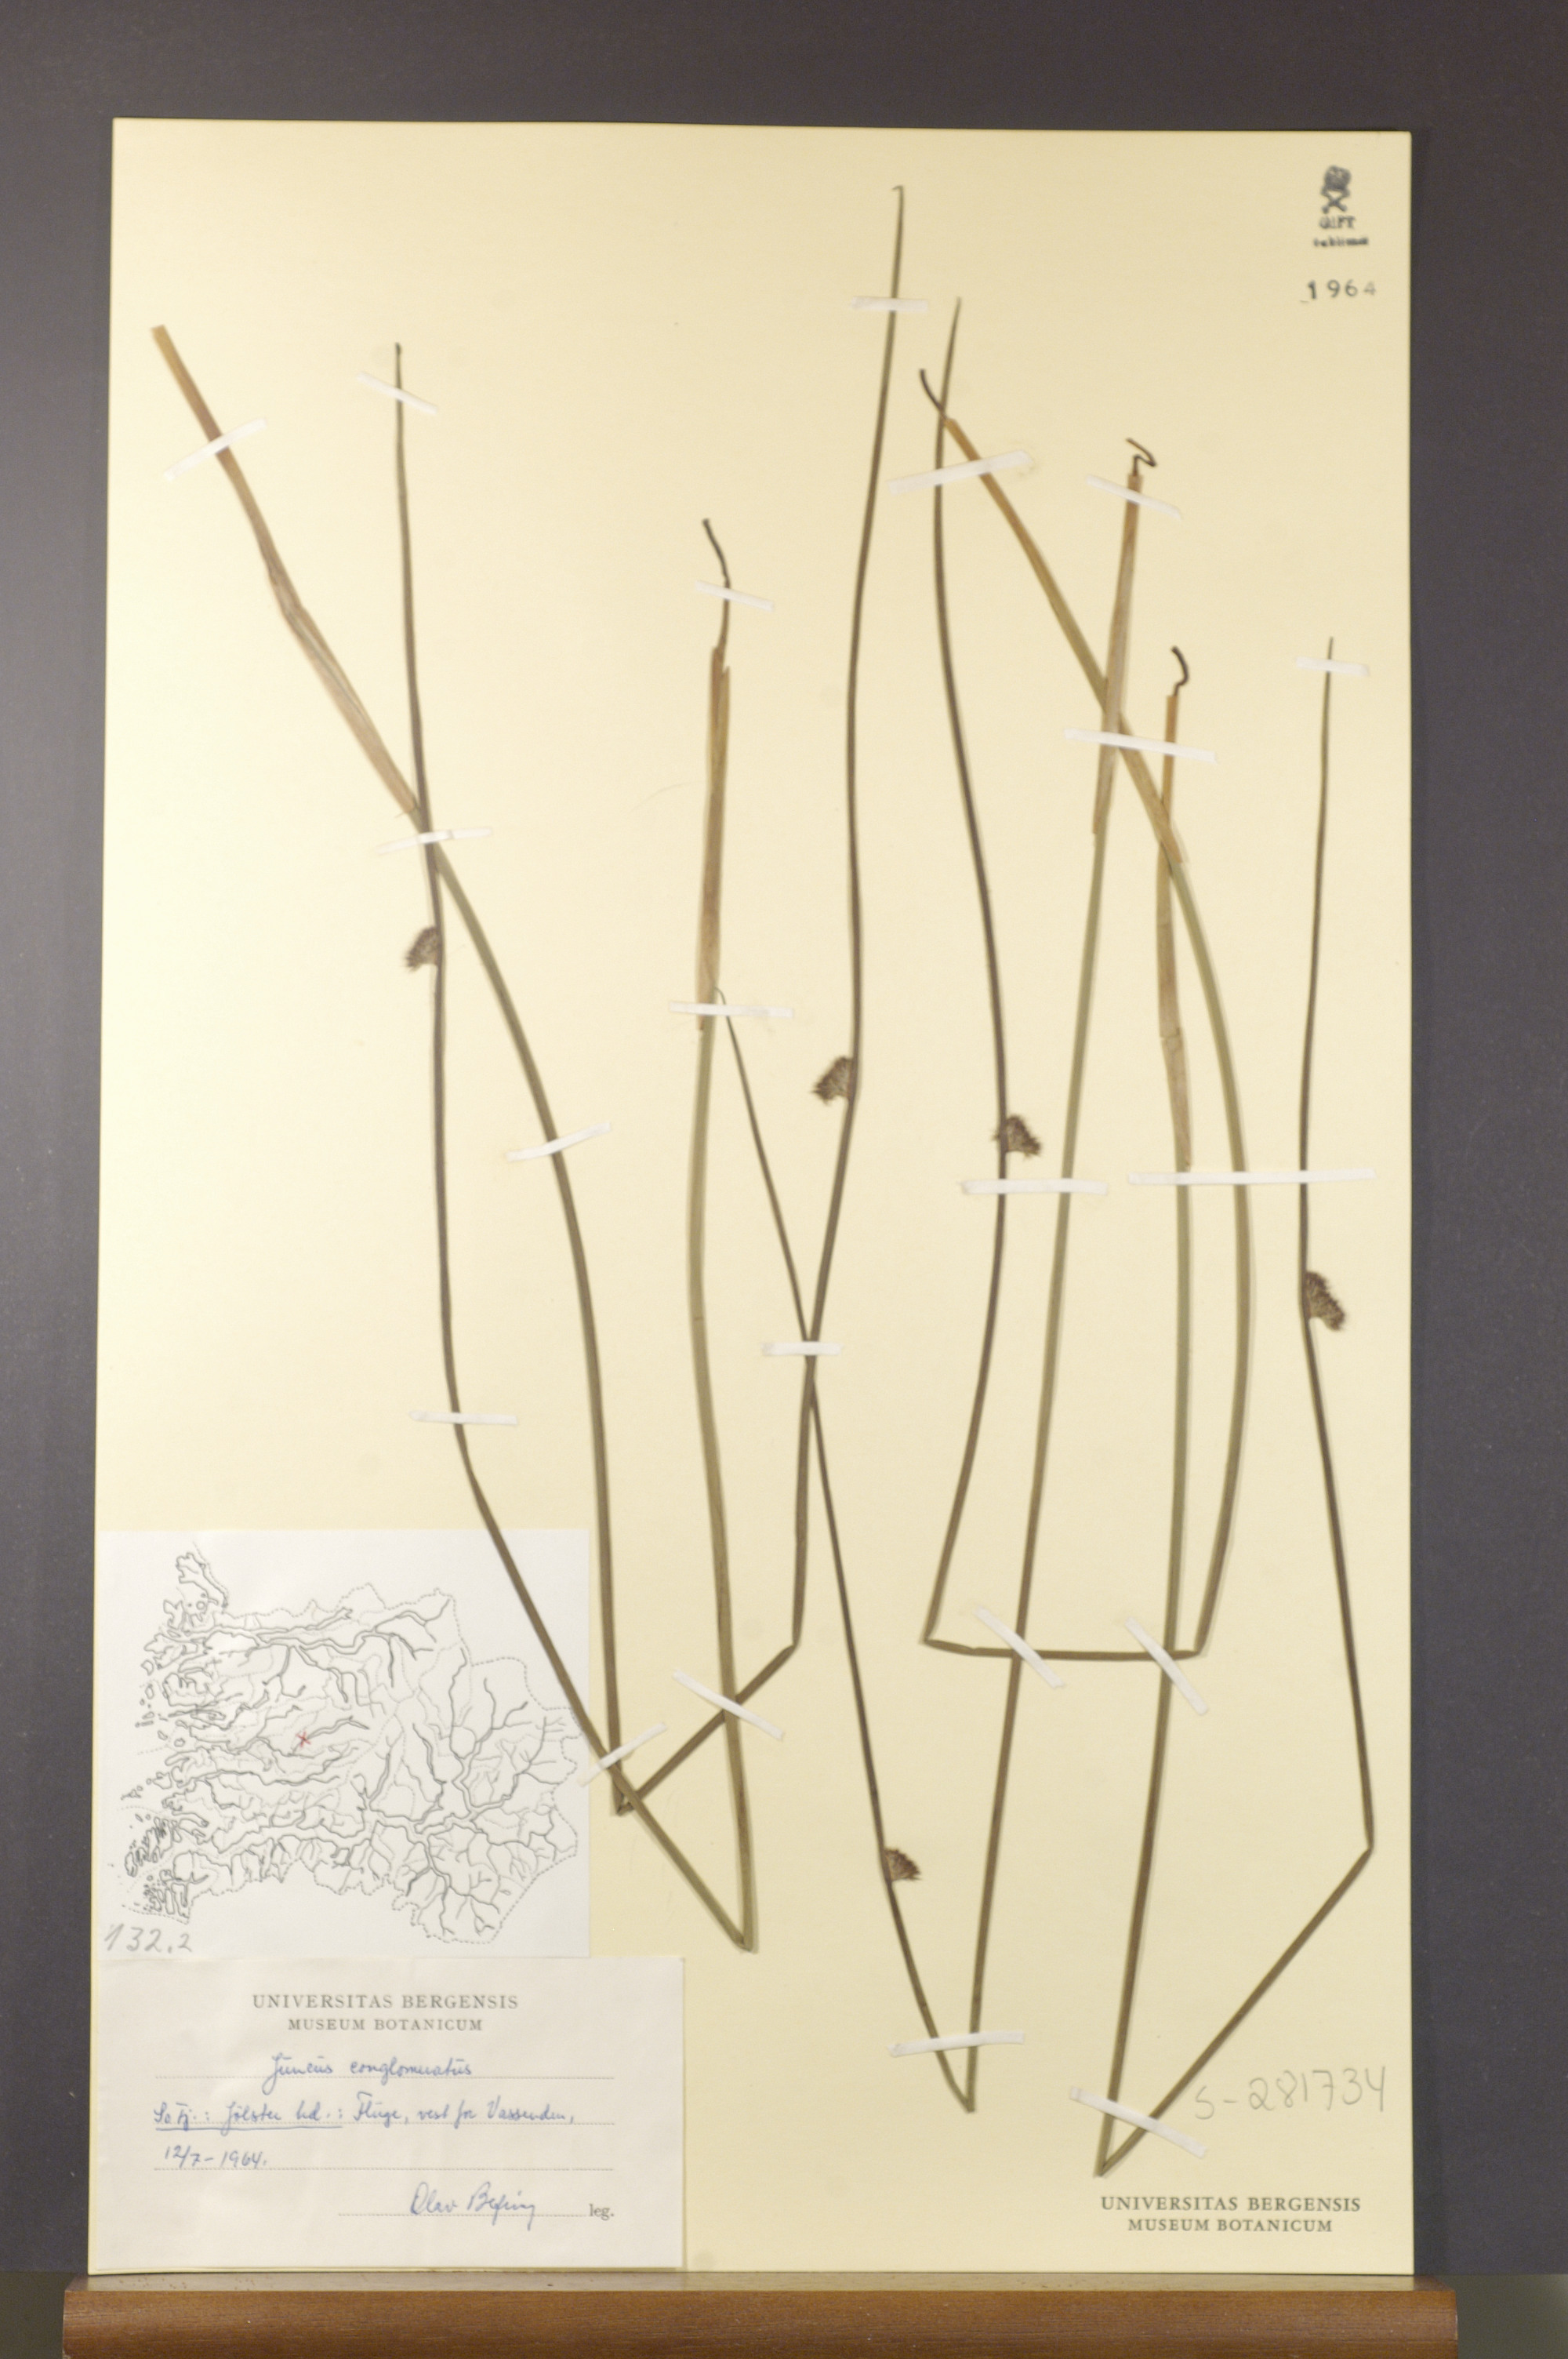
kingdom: Plantae
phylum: Tracheophyta
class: Liliopsida
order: Poales
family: Juncaceae
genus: Juncus
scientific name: Juncus conglomeratus
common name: Compact rush
